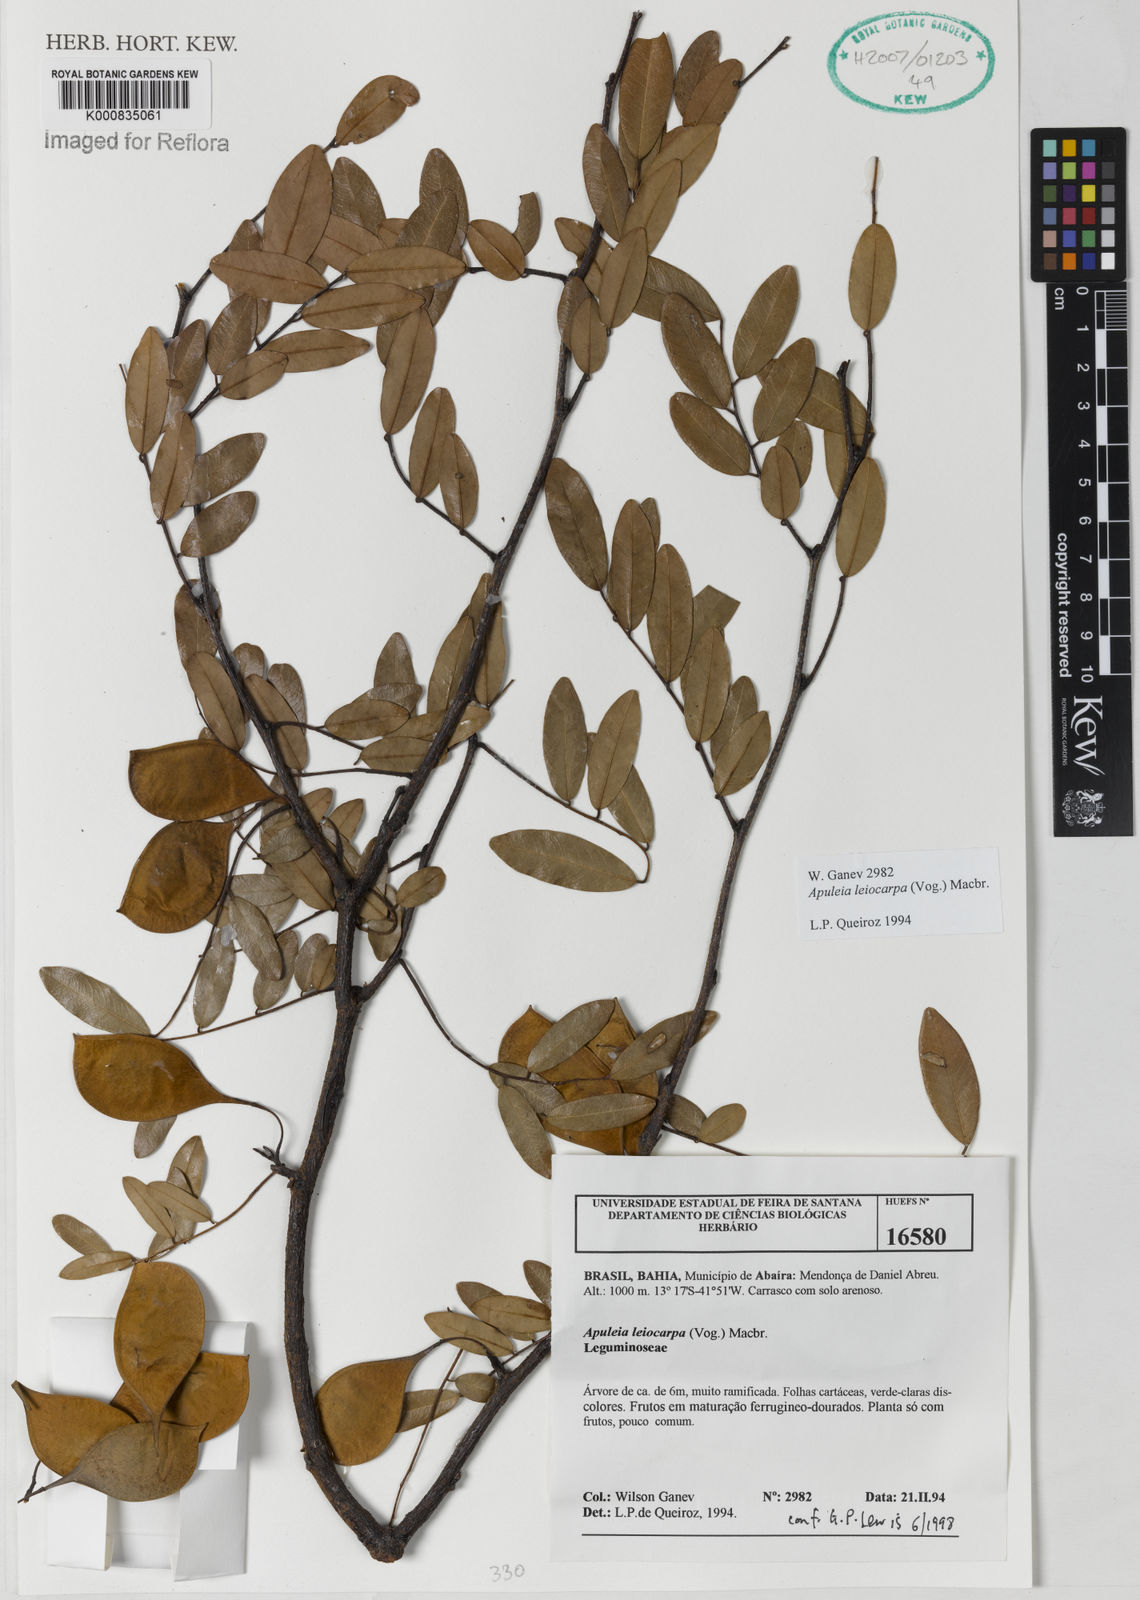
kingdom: Plantae
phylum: Tracheophyta
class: Magnoliopsida
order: Fabales
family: Fabaceae
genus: Apuleia
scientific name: Apuleia leiocarpa
